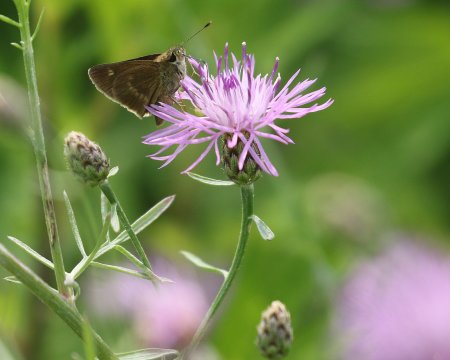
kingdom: Animalia
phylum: Arthropoda
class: Insecta
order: Lepidoptera
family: Hesperiidae
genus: Polites
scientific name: Polites egeremet
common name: Northern Broken-Dash
